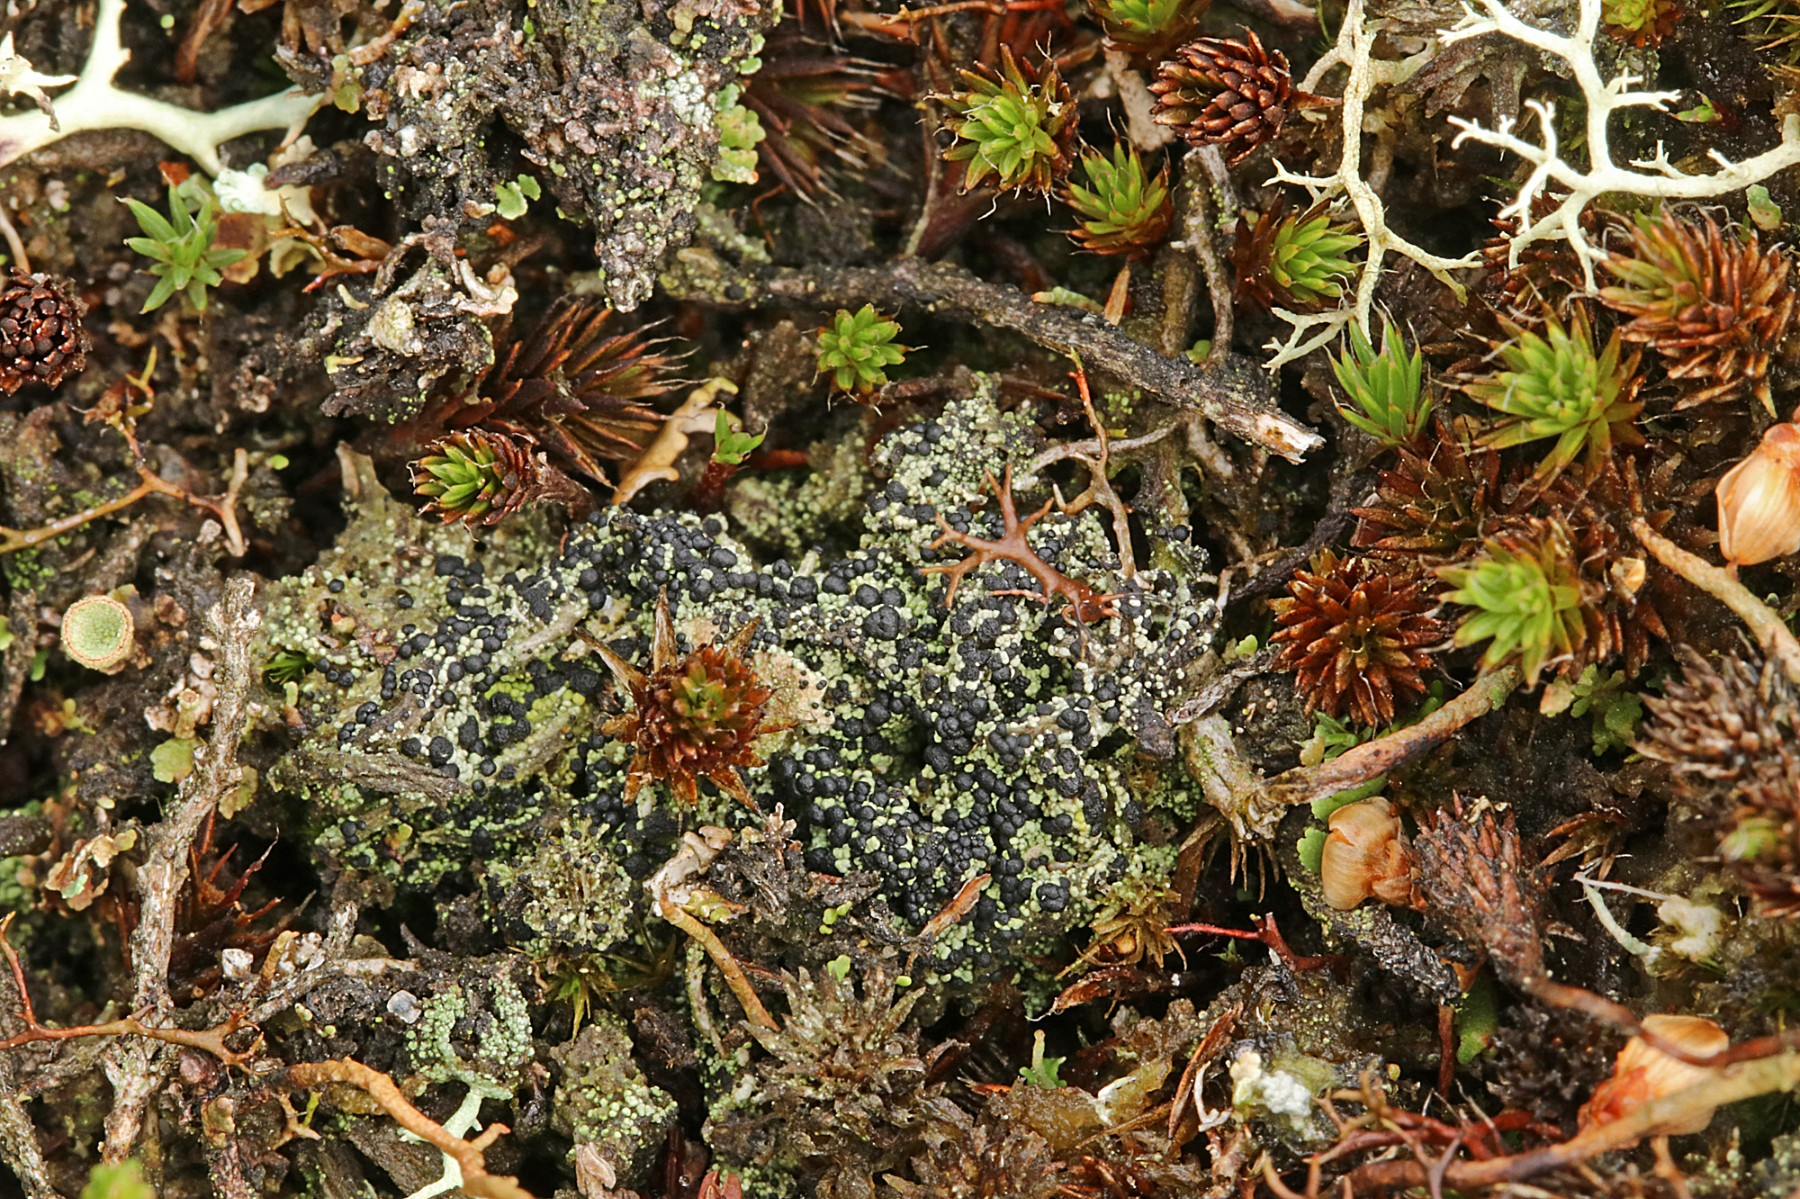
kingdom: Fungi
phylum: Ascomycota
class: Lecanoromycetes
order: Lecanorales
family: Byssolomataceae
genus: Micarea
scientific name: Micarea lignaria
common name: tørve-knaplav
